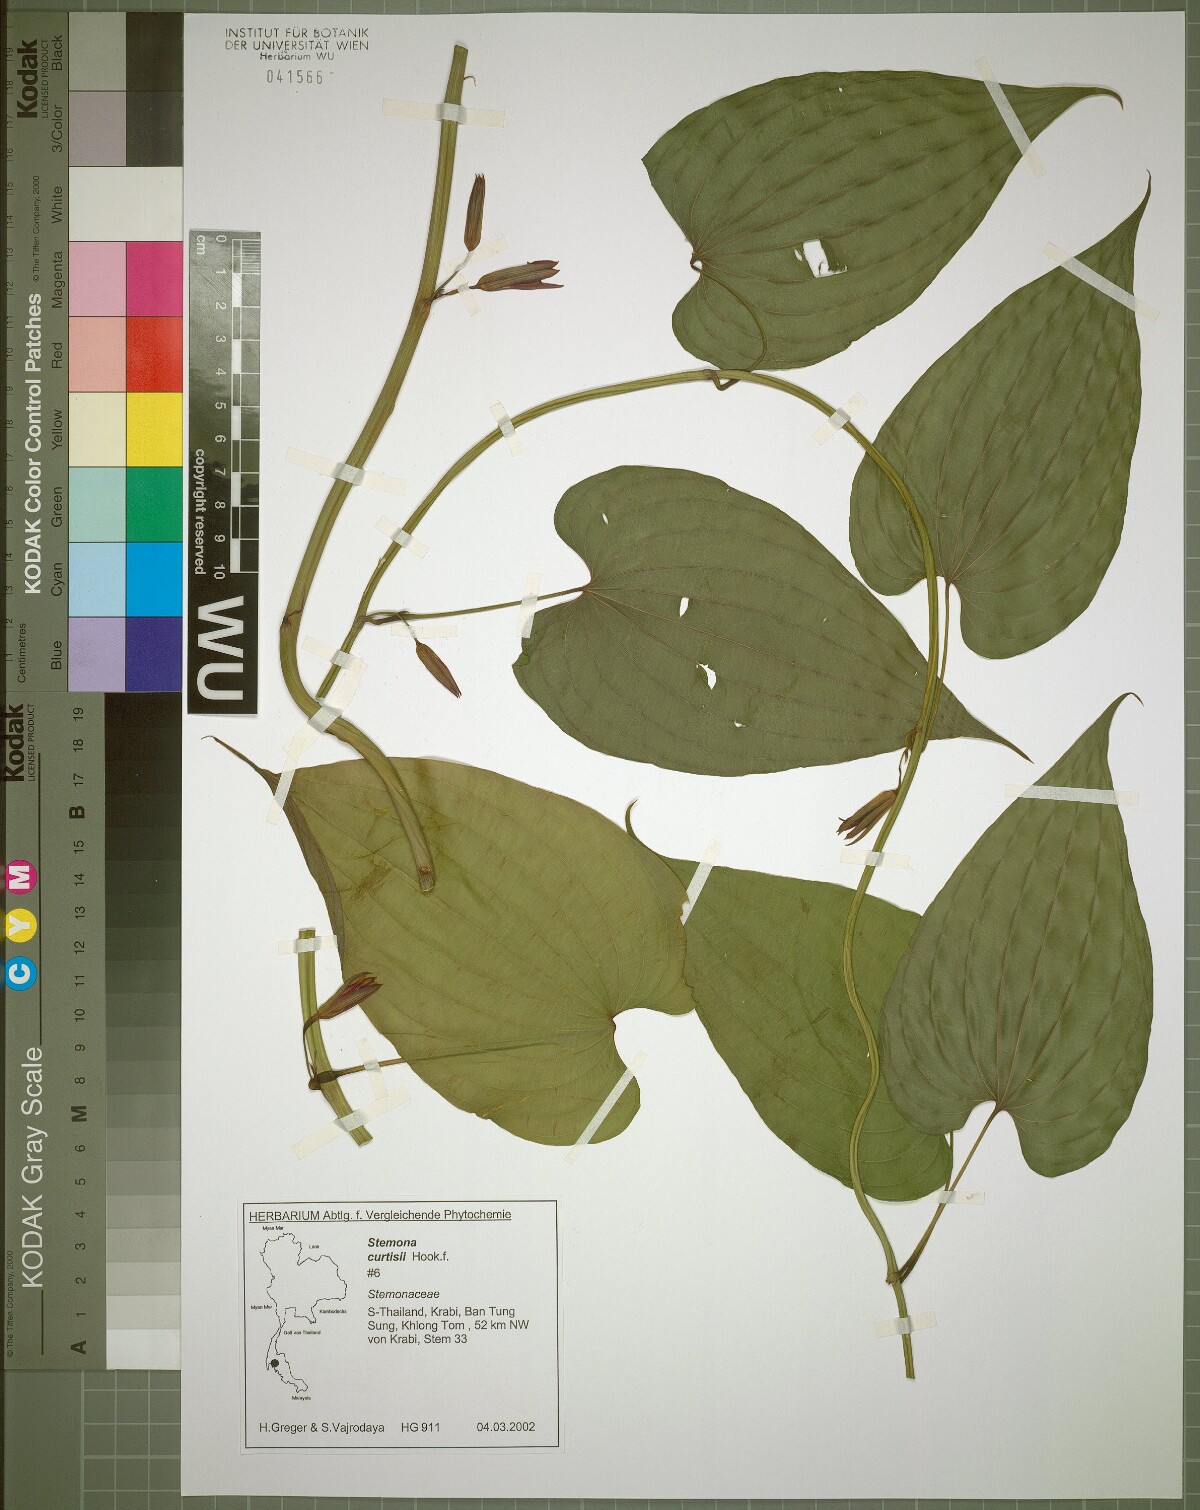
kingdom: Plantae
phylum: Tracheophyta
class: Liliopsida
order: Pandanales
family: Stemonaceae
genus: Stemona
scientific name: Stemona curtisii
